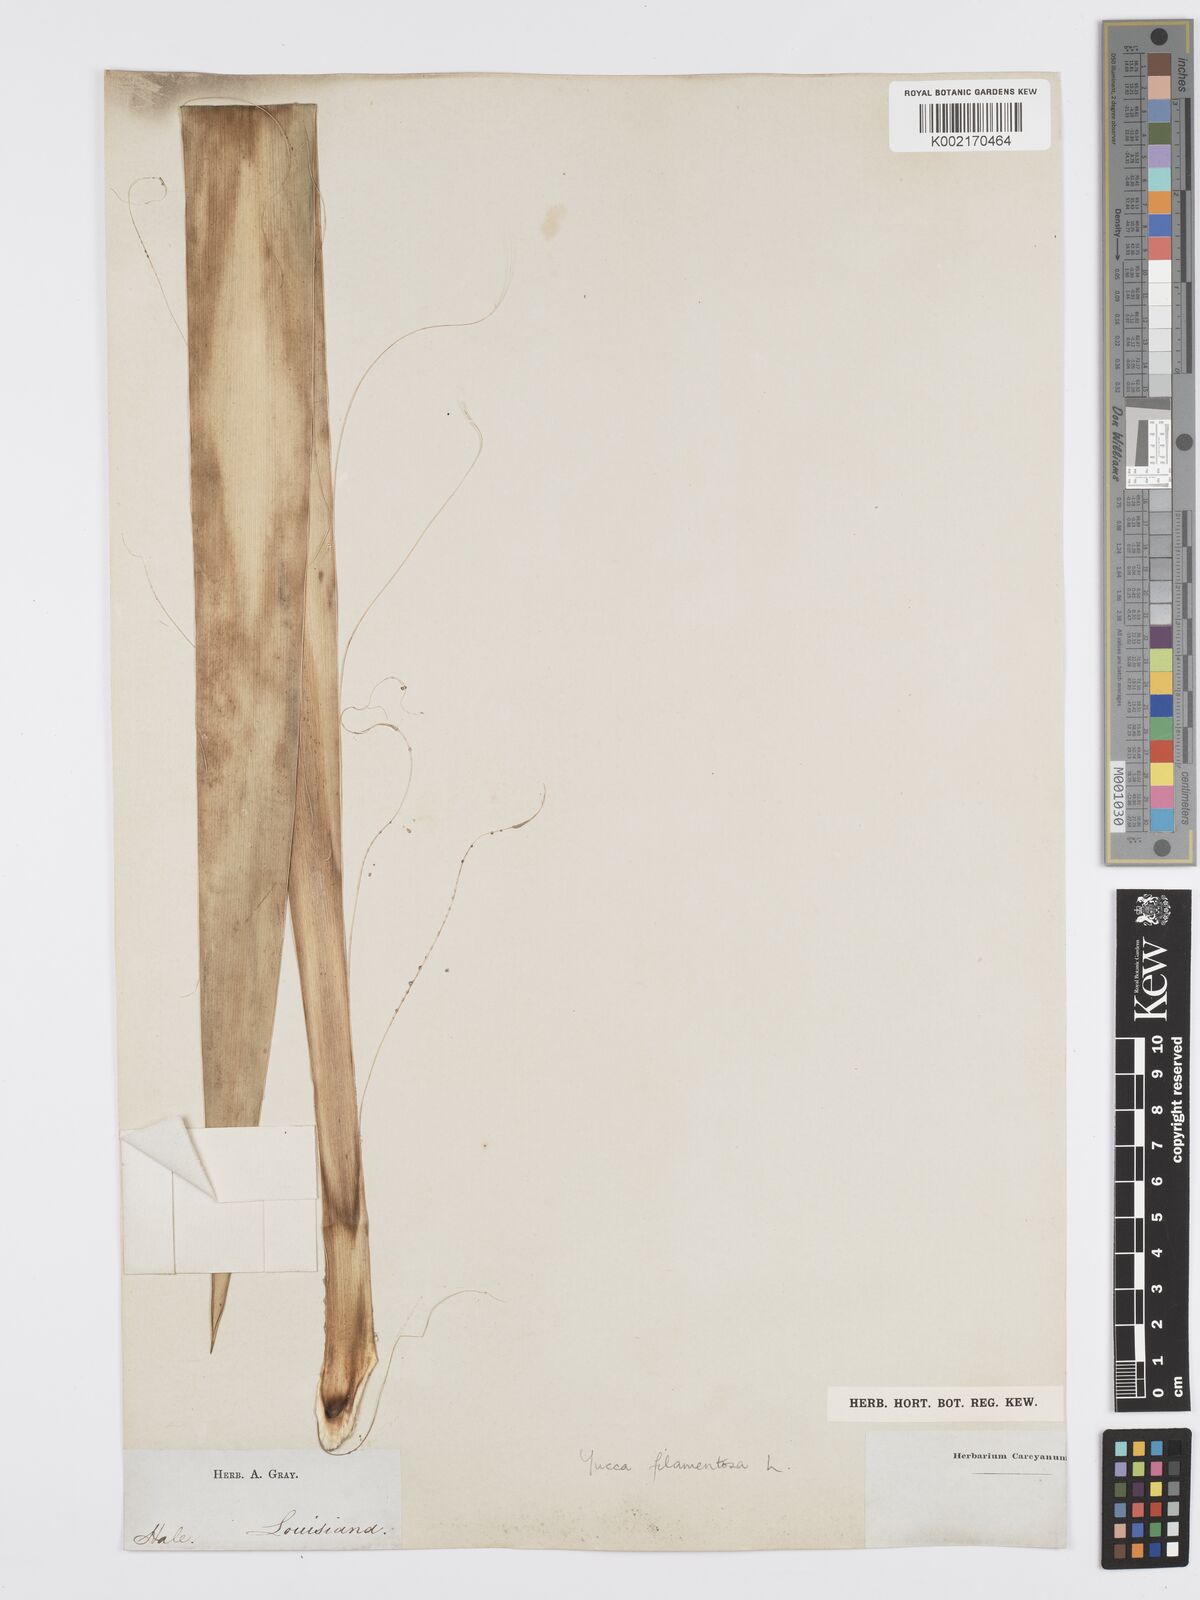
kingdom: Plantae
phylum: Tracheophyta
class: Liliopsida
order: Asparagales
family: Asparagaceae
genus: Yucca
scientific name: Yucca filamentosa
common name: Adam's-needle
